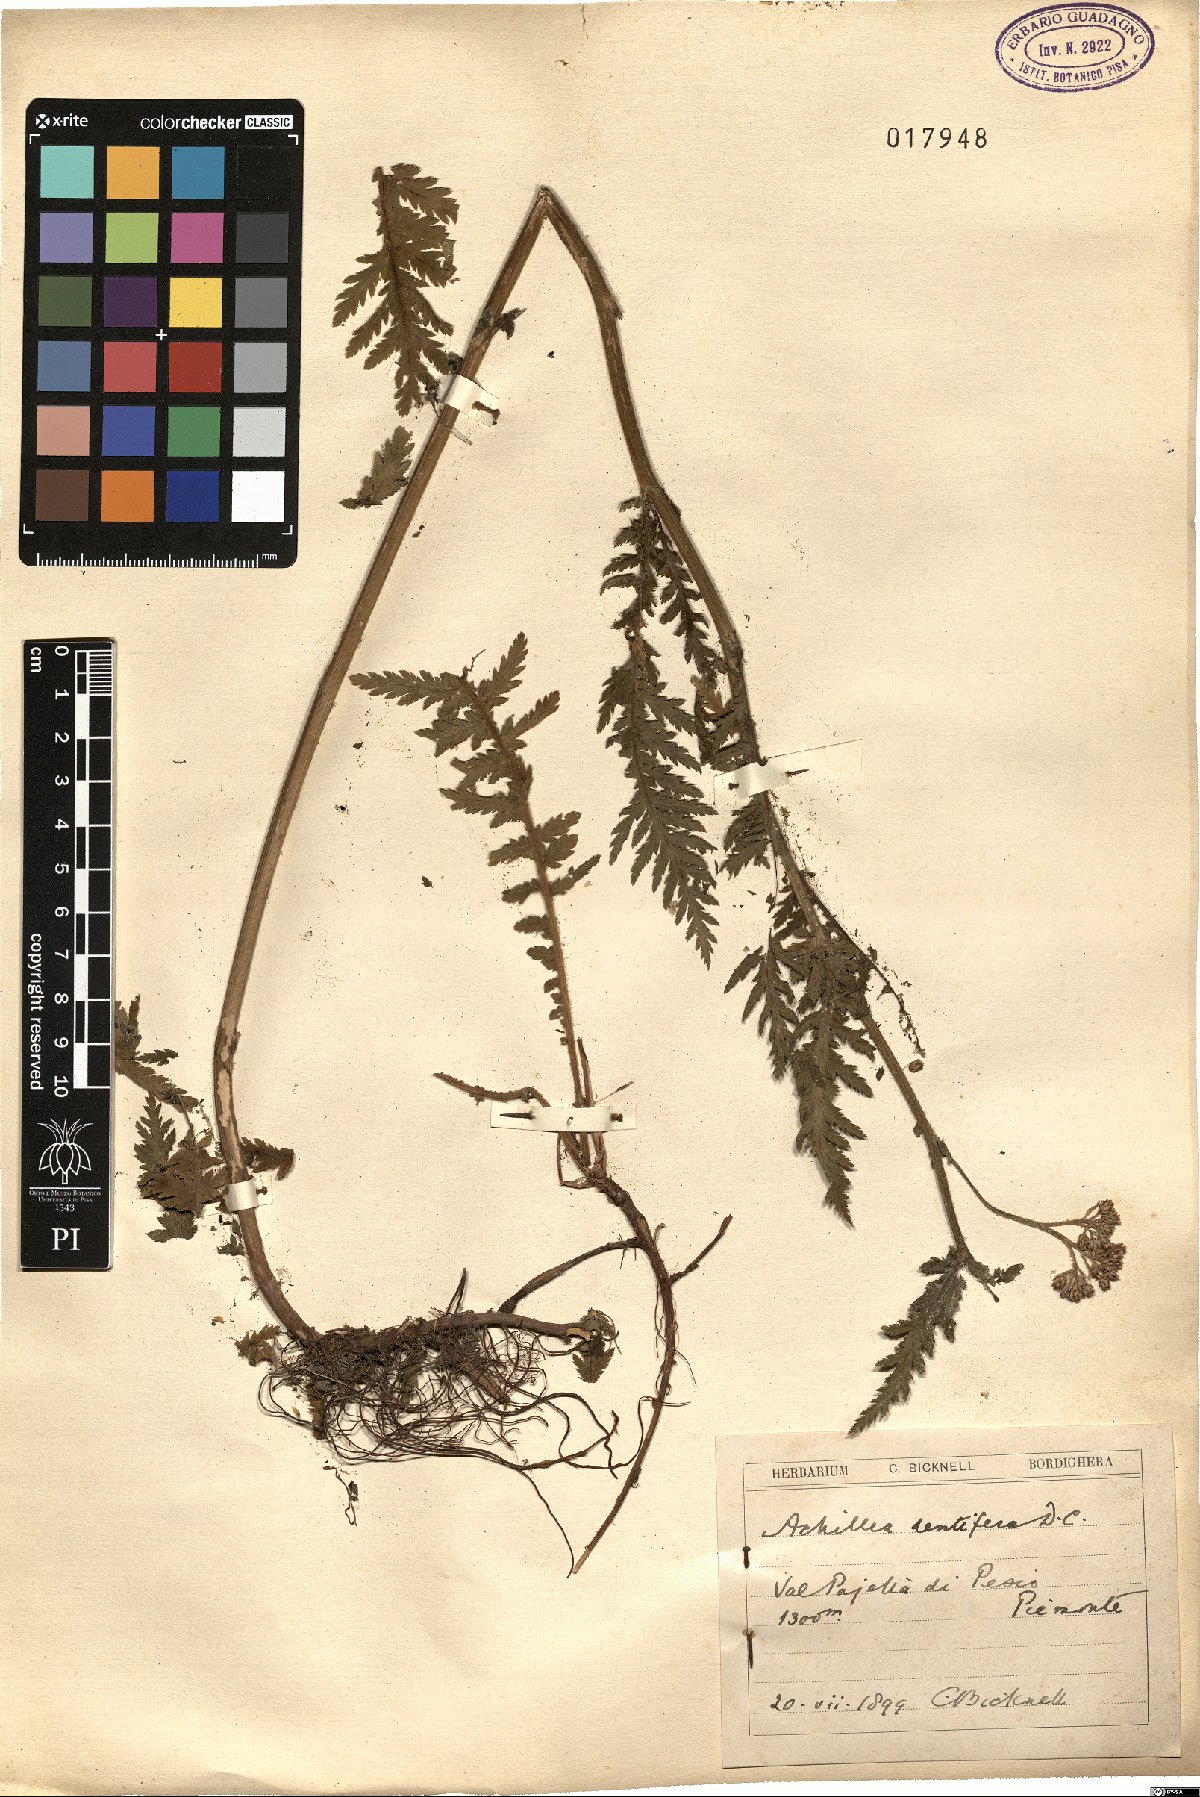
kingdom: Plantae
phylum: Tracheophyta
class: Magnoliopsida
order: Asterales
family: Asteraceae
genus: Achillea
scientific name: Achillea distans
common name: Tall yarrow
